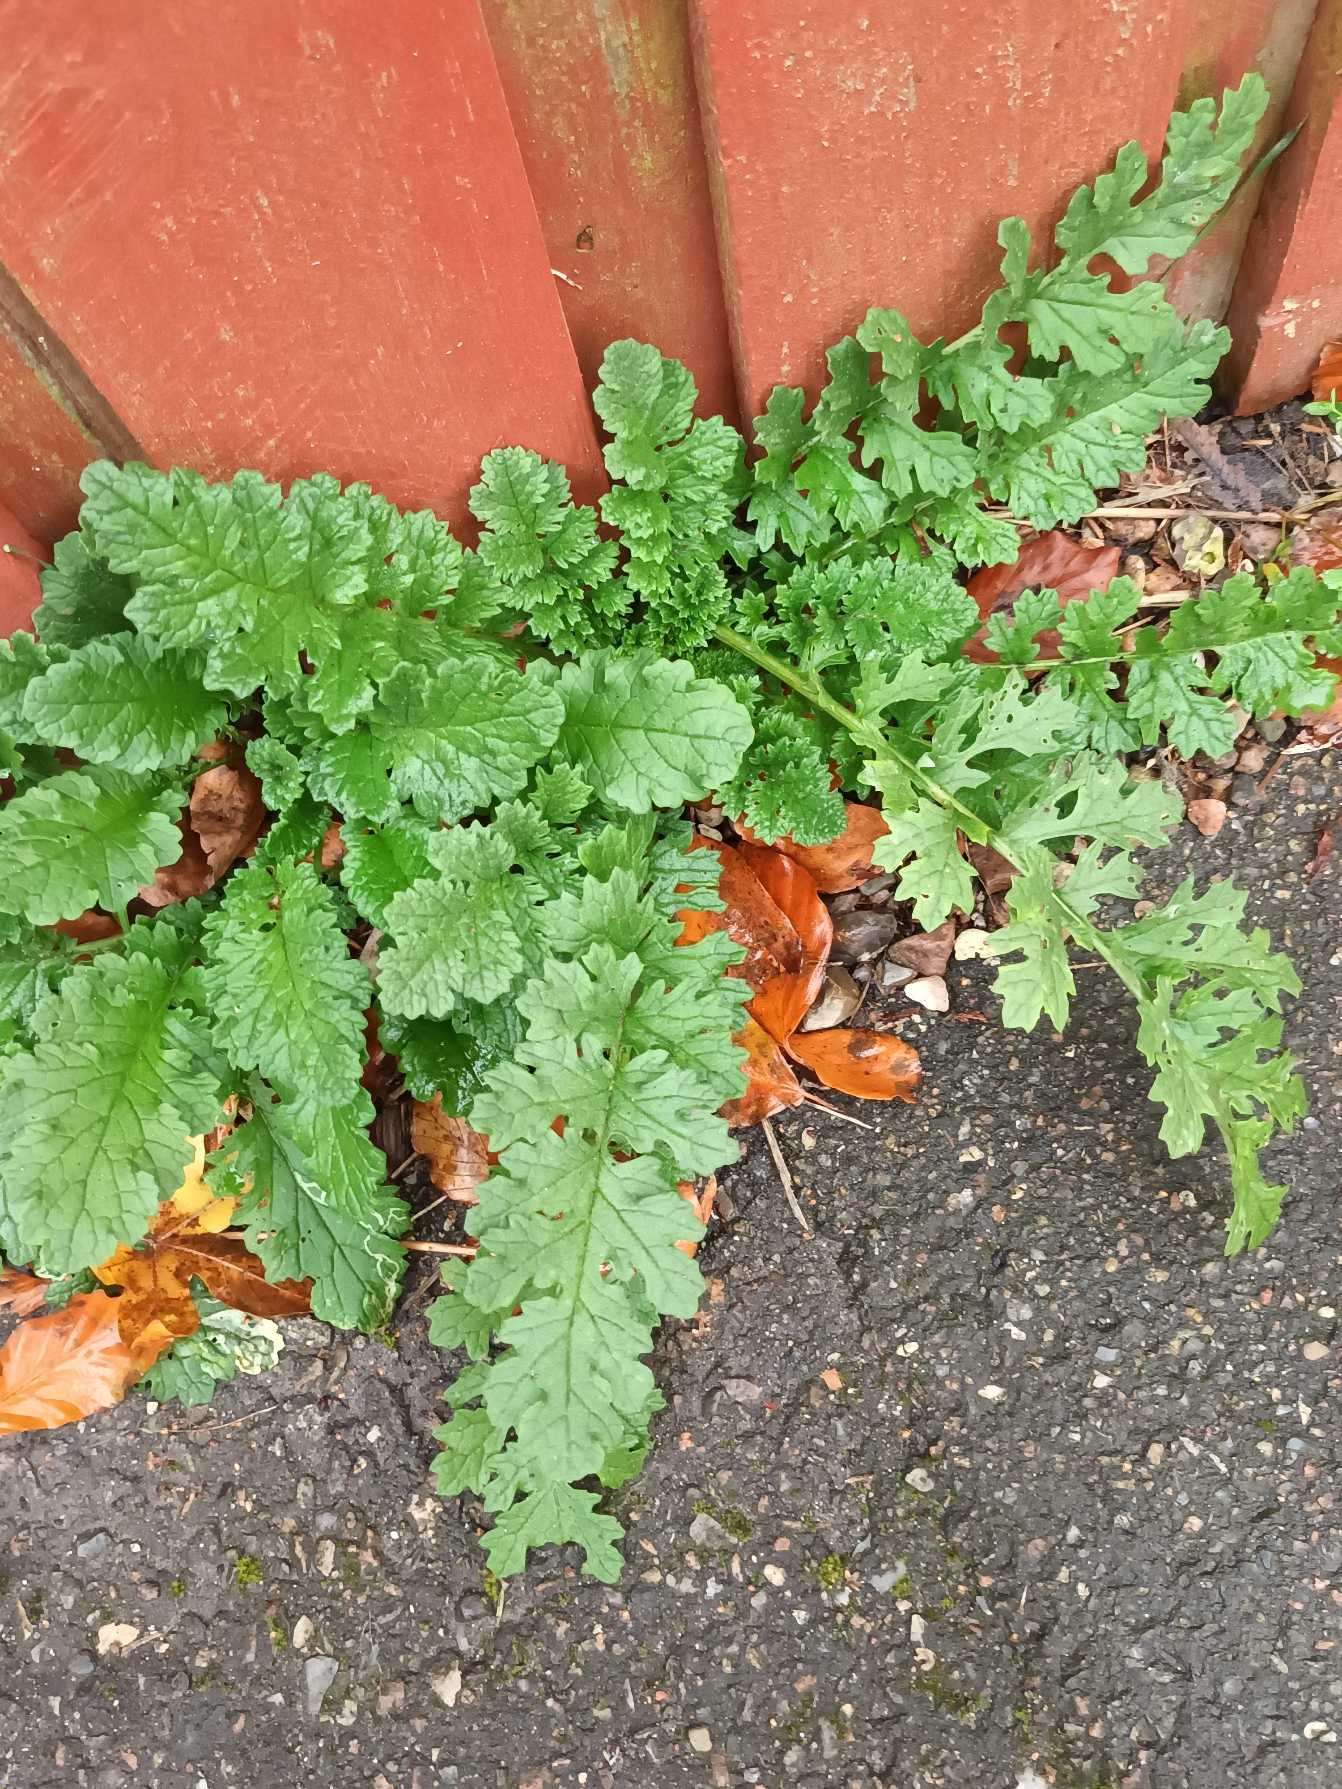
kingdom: Plantae
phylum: Tracheophyta
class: Magnoliopsida
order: Asterales
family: Asteraceae
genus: Jacobaea
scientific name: Jacobaea vulgaris
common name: Eng-brandbæger
